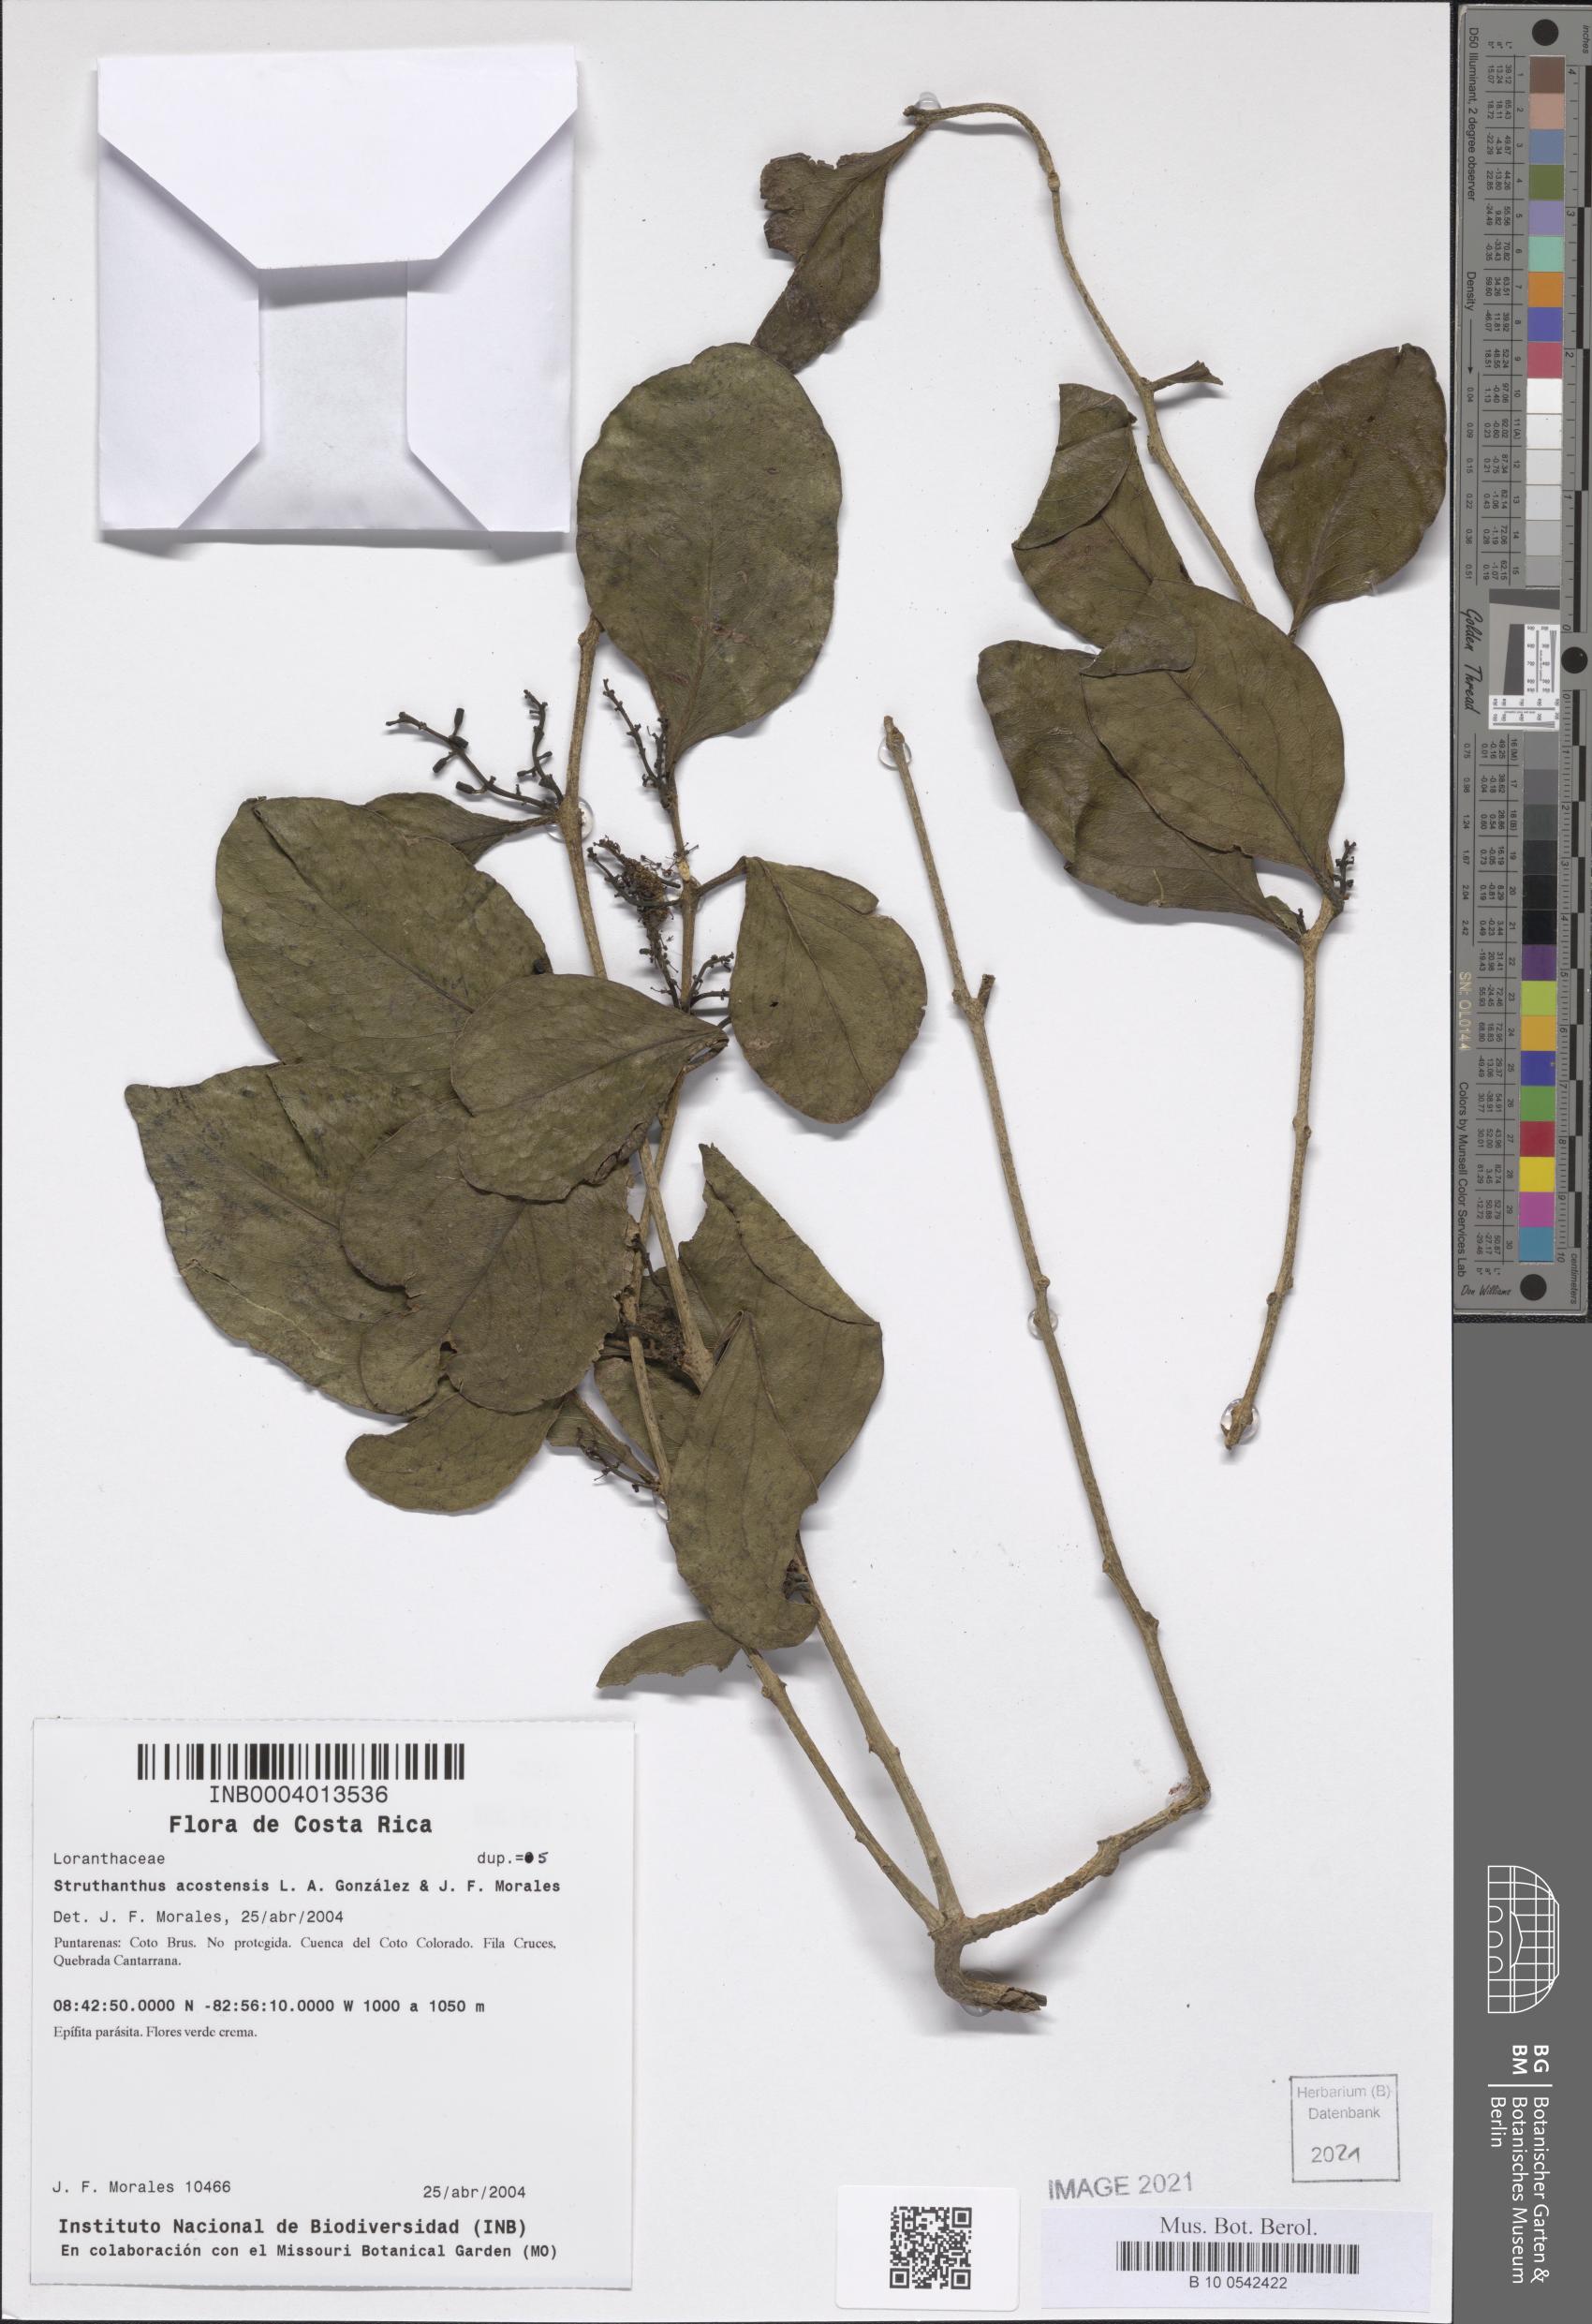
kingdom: Plantae
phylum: Tracheophyta
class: Magnoliopsida
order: Santalales
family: Loranthaceae
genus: Struthanthus
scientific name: Struthanthus acostensis
